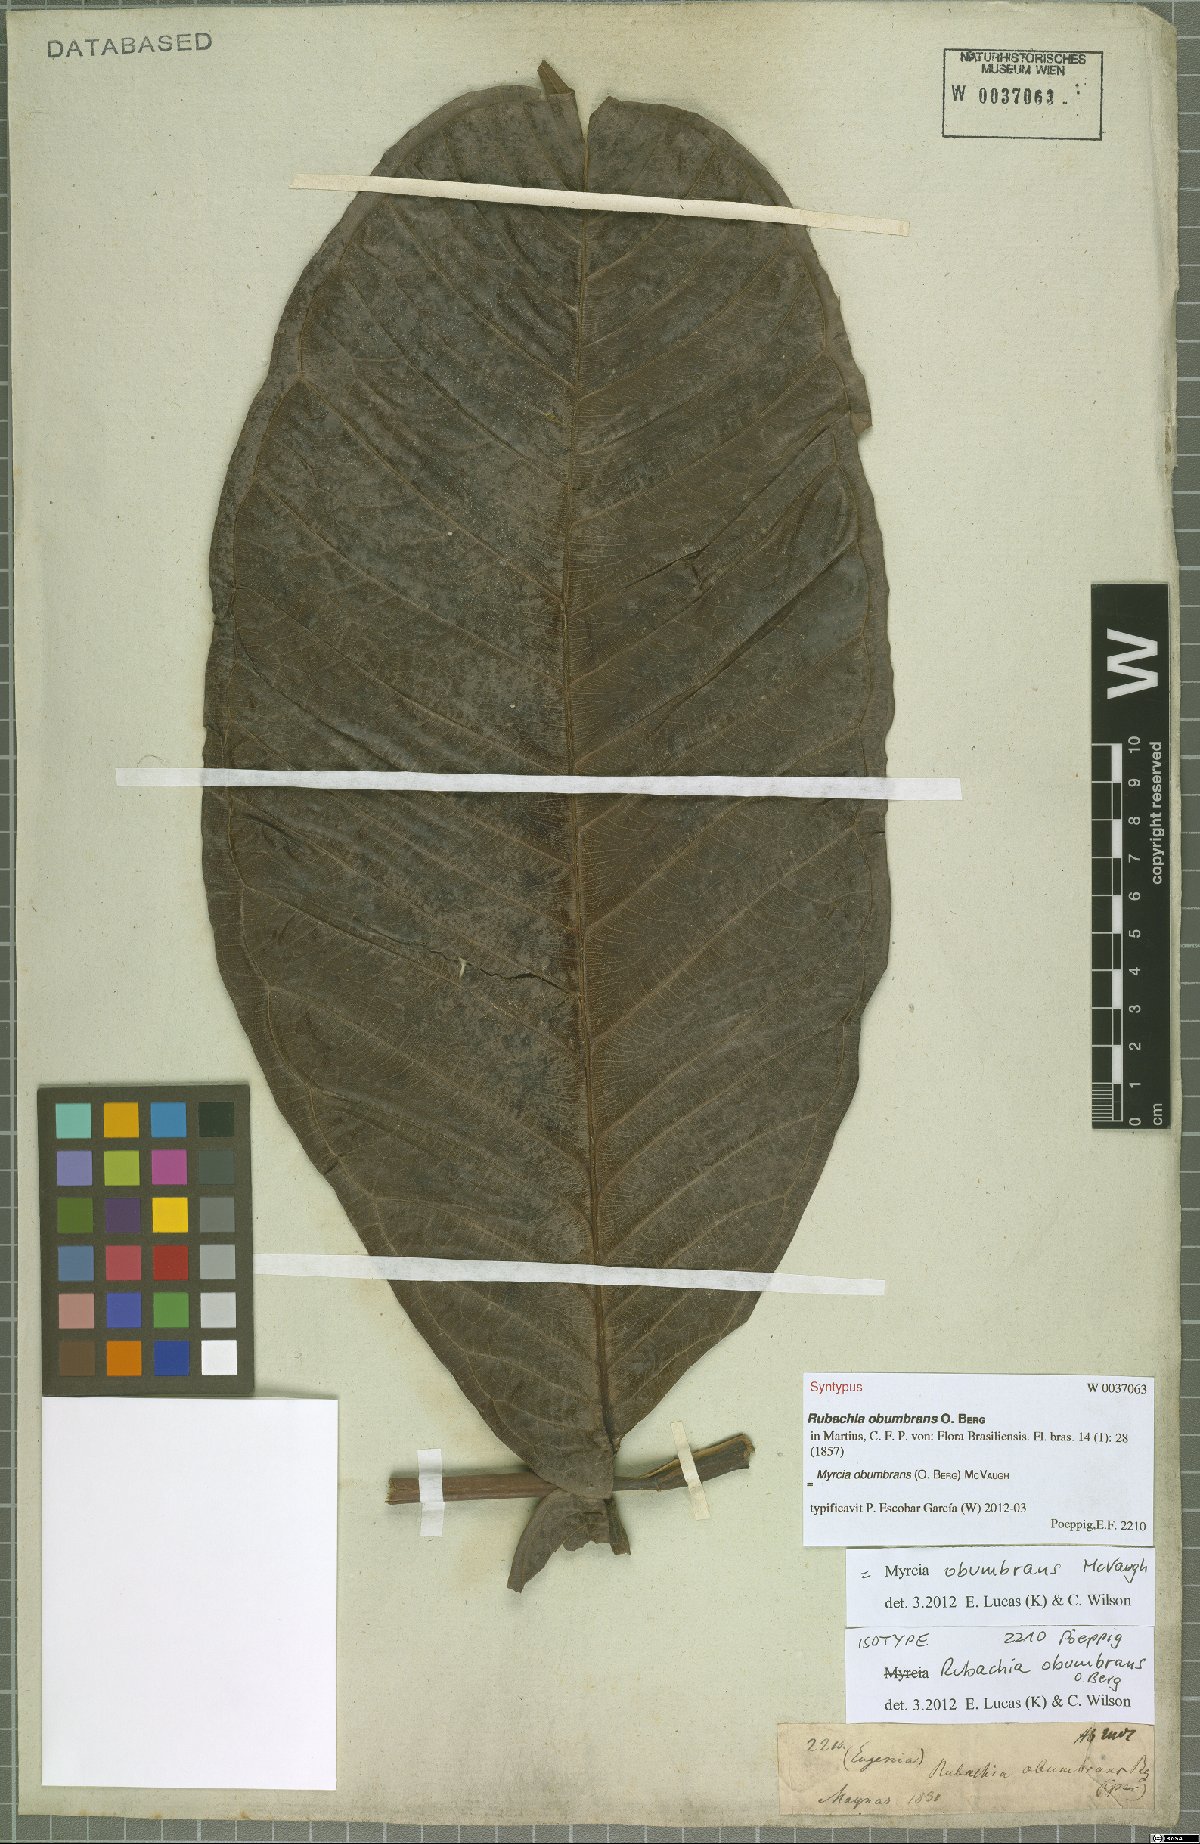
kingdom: Plantae
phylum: Tracheophyta
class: Magnoliopsida
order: Myrtales
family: Myrtaceae
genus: Myrcia
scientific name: Myrcia obumbrans
